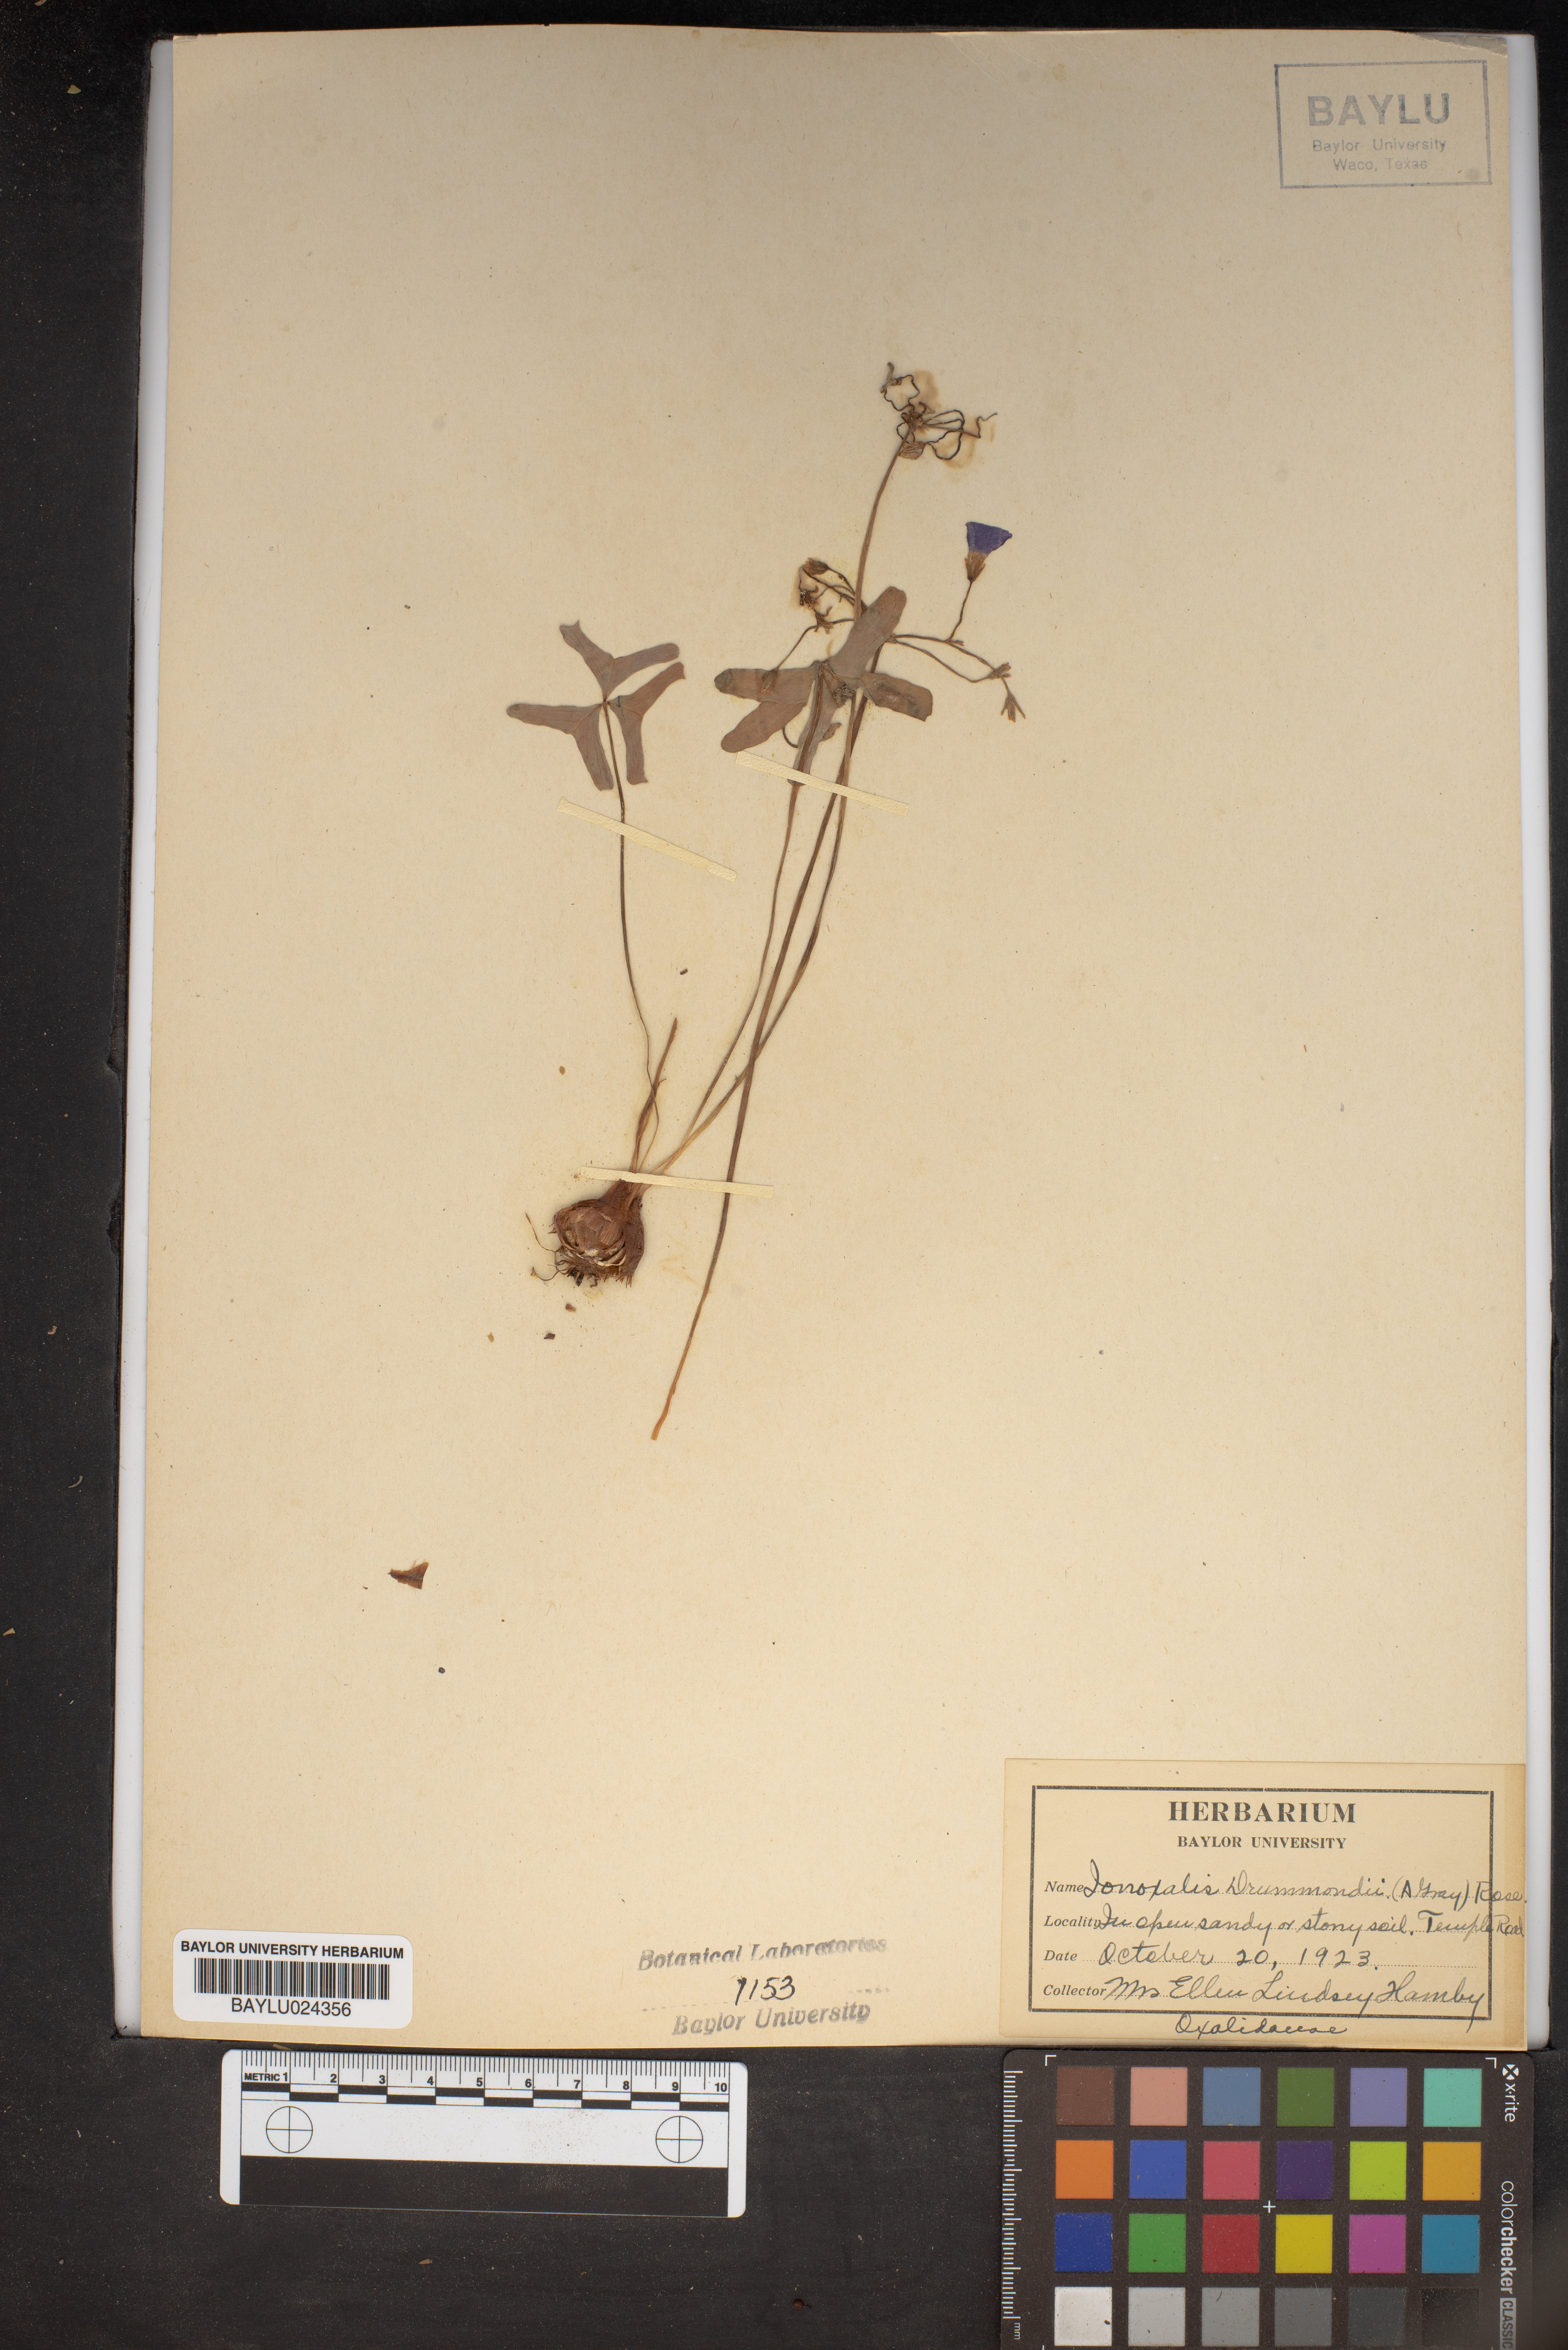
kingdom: Plantae
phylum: Tracheophyta
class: Magnoliopsida
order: Oxalidales
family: Oxalidaceae
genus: Oxalis
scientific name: Oxalis drummondii
